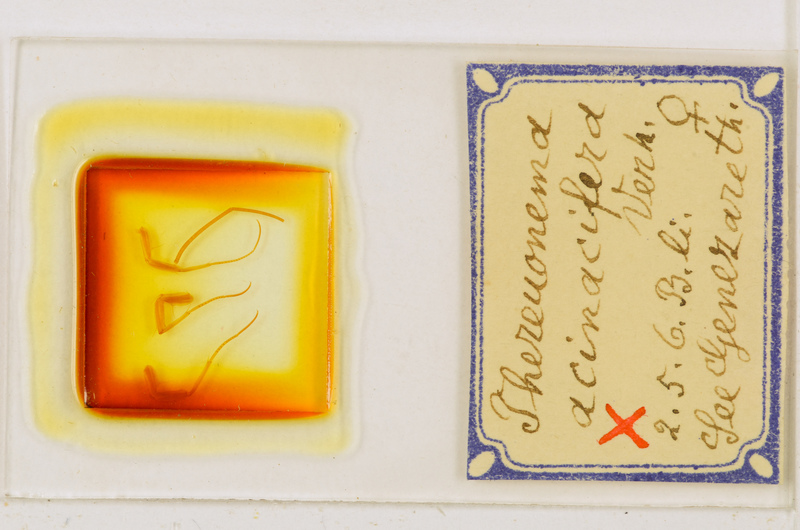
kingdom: Animalia
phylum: Arthropoda
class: Chilopoda
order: Scutigeromorpha
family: Scutigeridae
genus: Thereuonema
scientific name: Thereuonema microstoma
